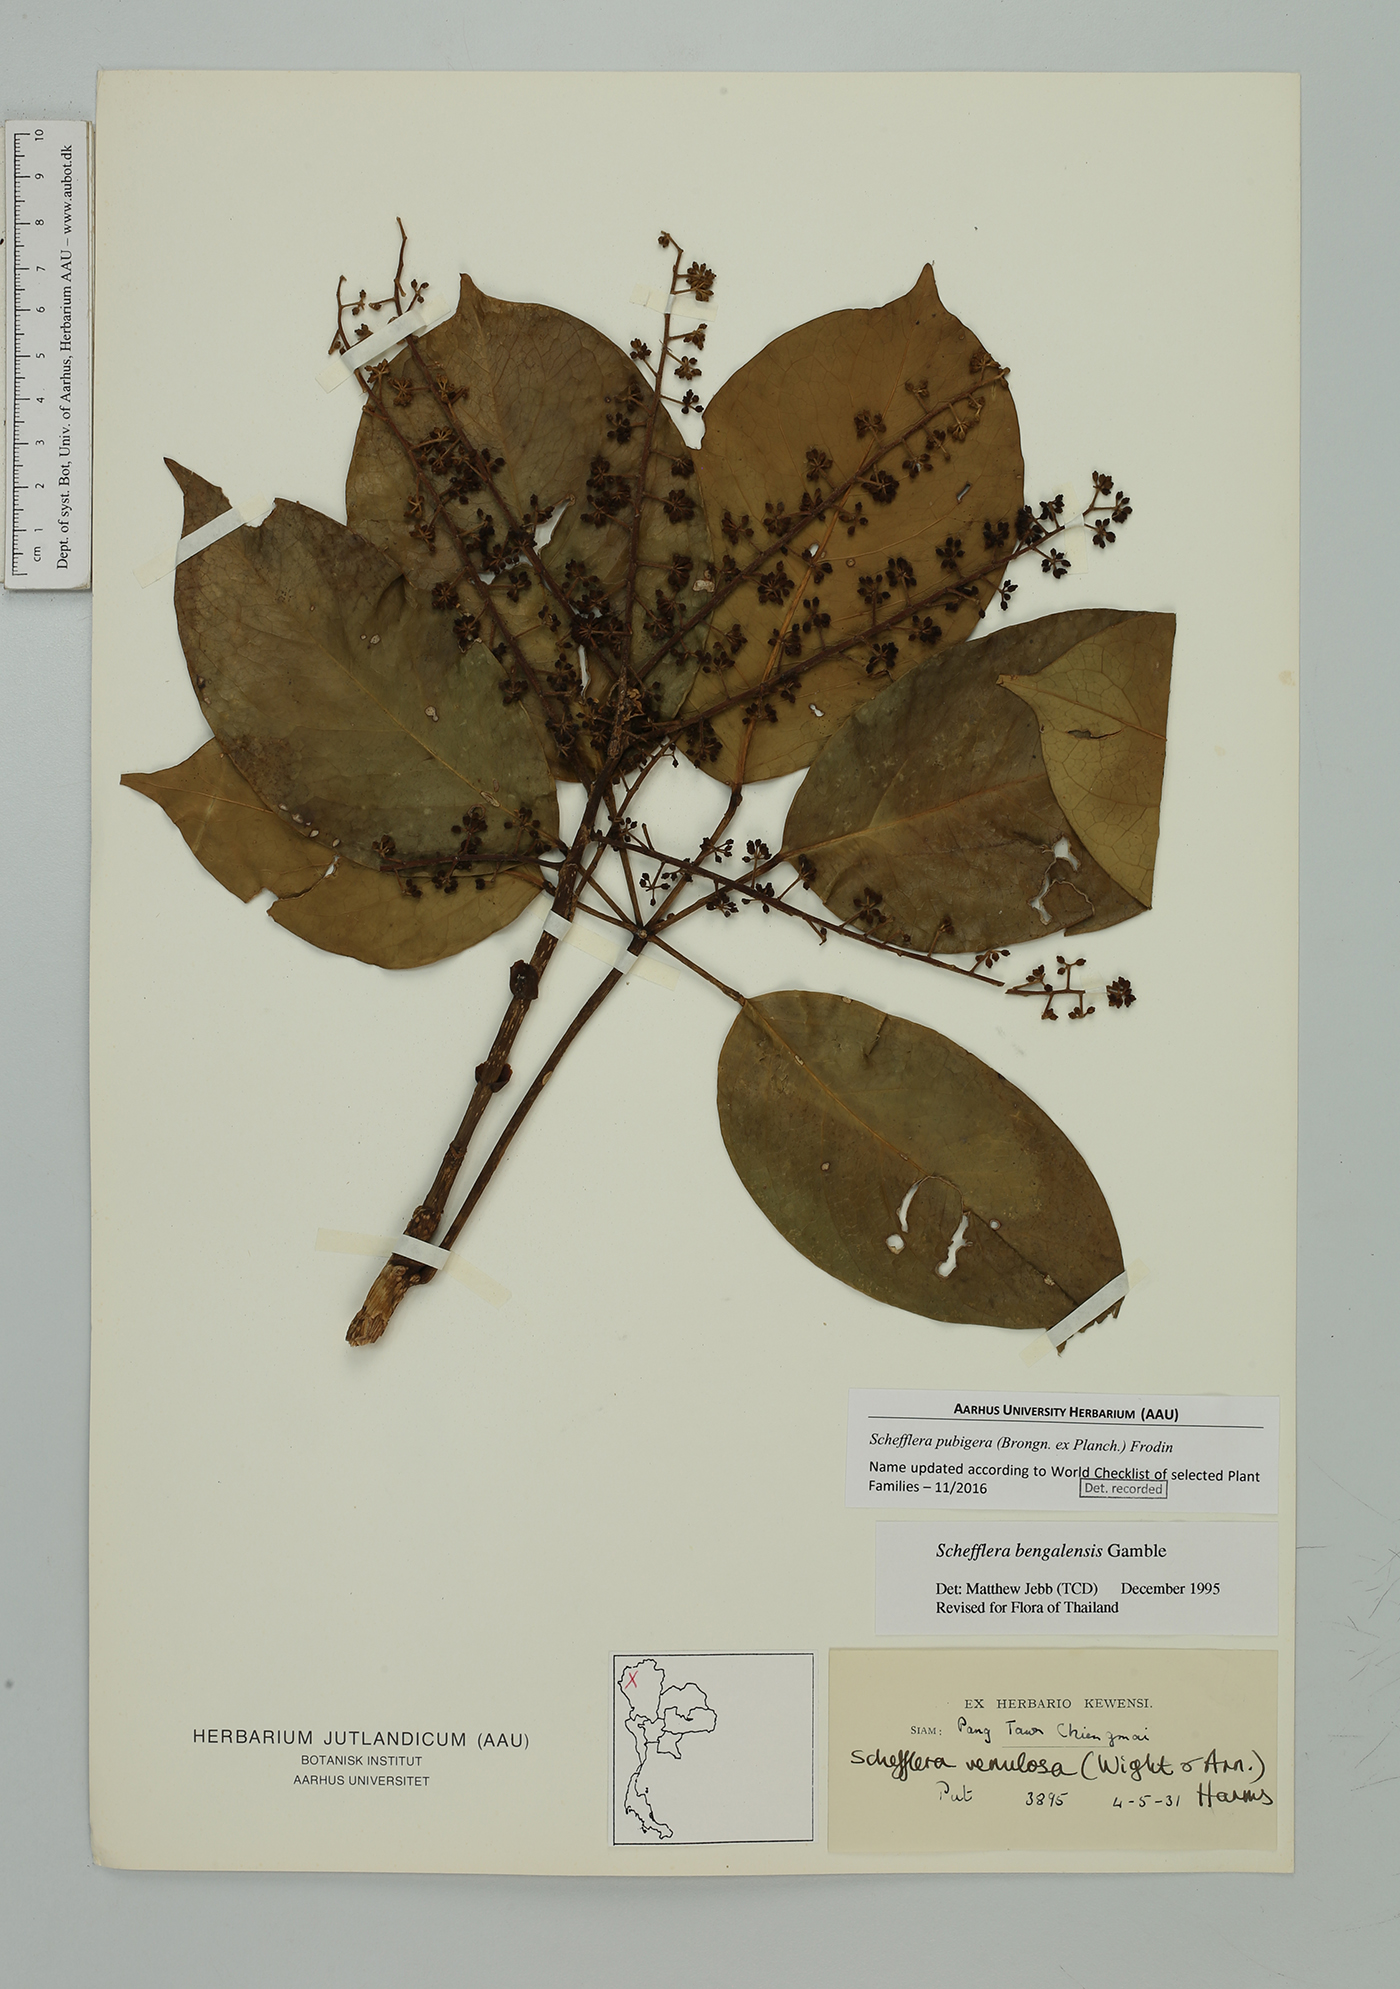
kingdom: Plantae
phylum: Tracheophyta
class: Magnoliopsida
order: Apiales
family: Araliaceae
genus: Heptapleurum
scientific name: Heptapleurum ellipticum
